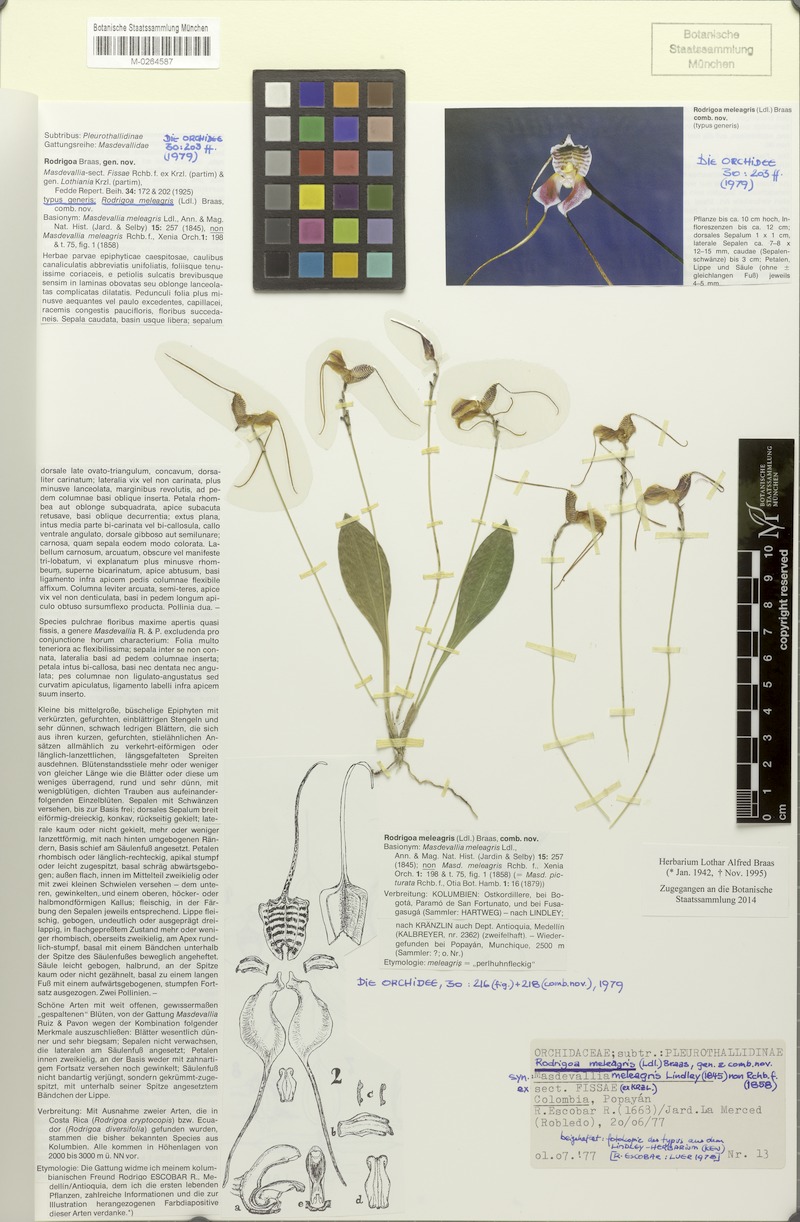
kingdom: Plantae
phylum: Tracheophyta
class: Liliopsida
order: Asparagales
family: Orchidaceae
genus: Masdevallia
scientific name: Masdevallia meleagris
